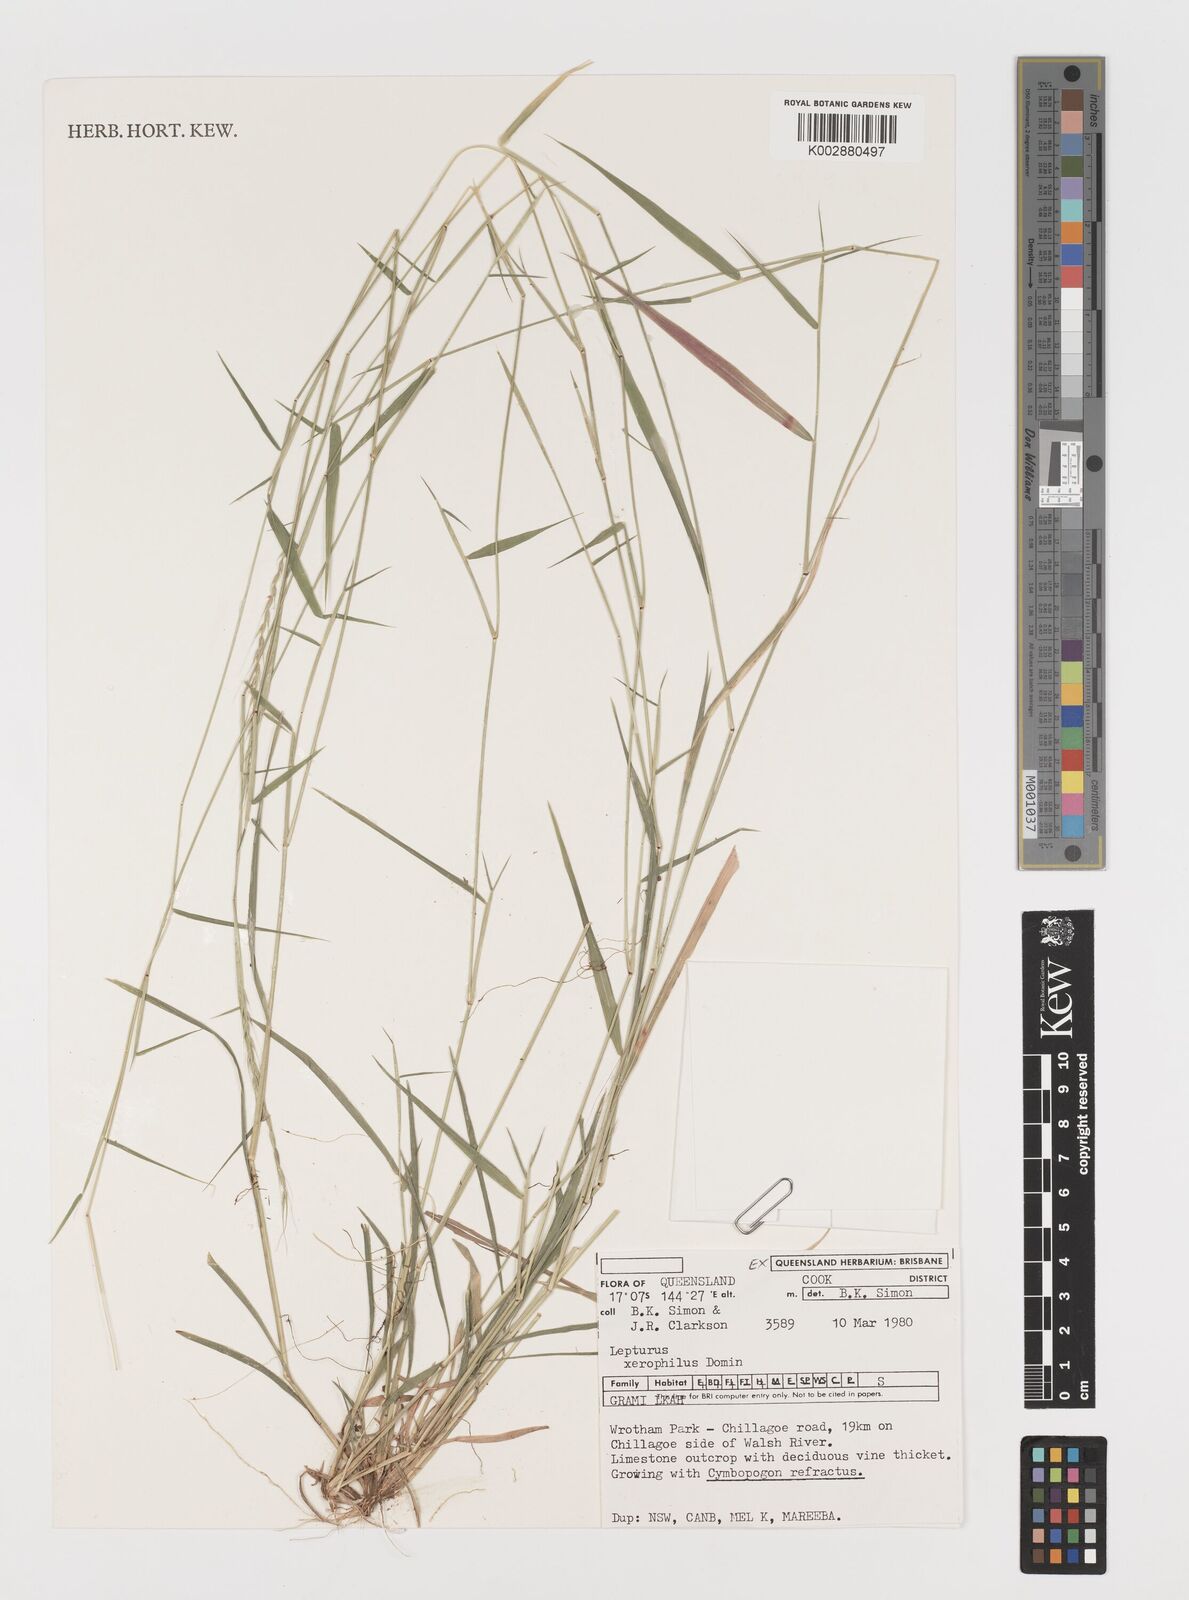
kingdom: Plantae
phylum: Tracheophyta
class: Liliopsida
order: Poales
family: Poaceae
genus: Lepturus
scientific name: Lepturus xerophilus
